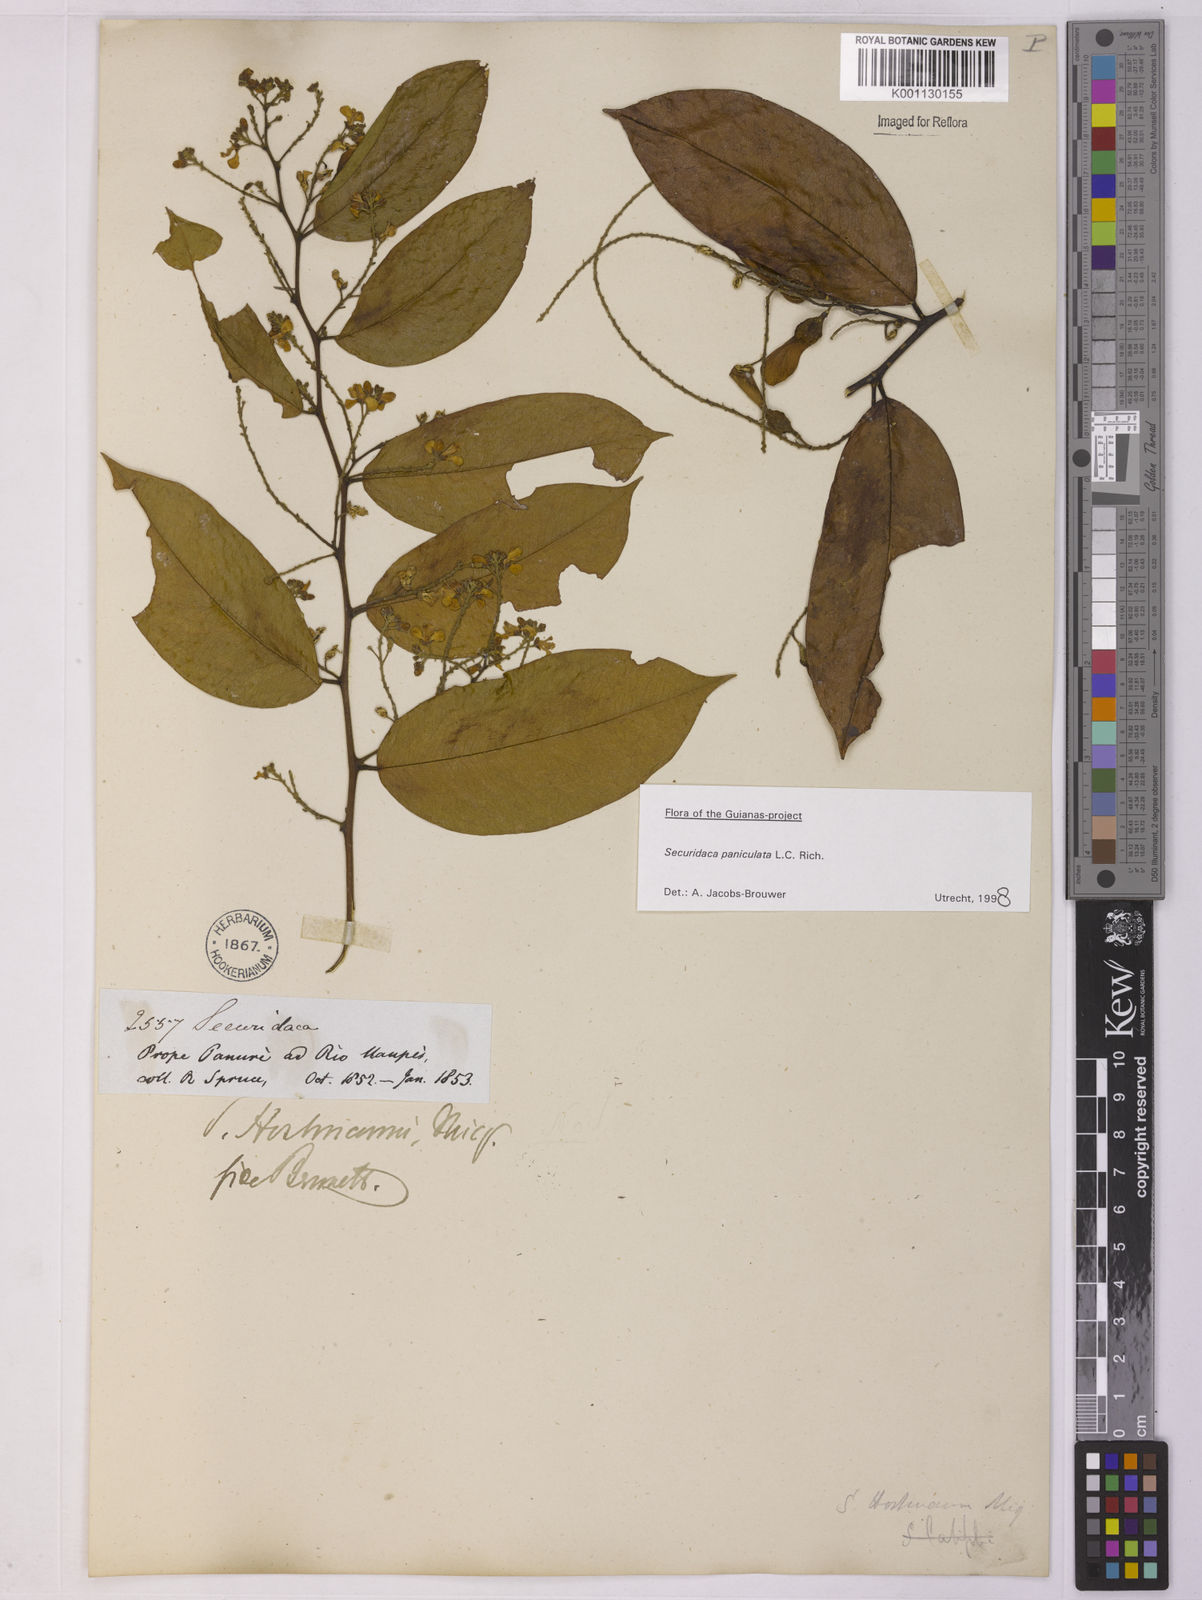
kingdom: Plantae
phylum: Tracheophyta
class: Magnoliopsida
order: Fabales
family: Polygalaceae
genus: Securidaca
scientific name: Securidaca paniculata
